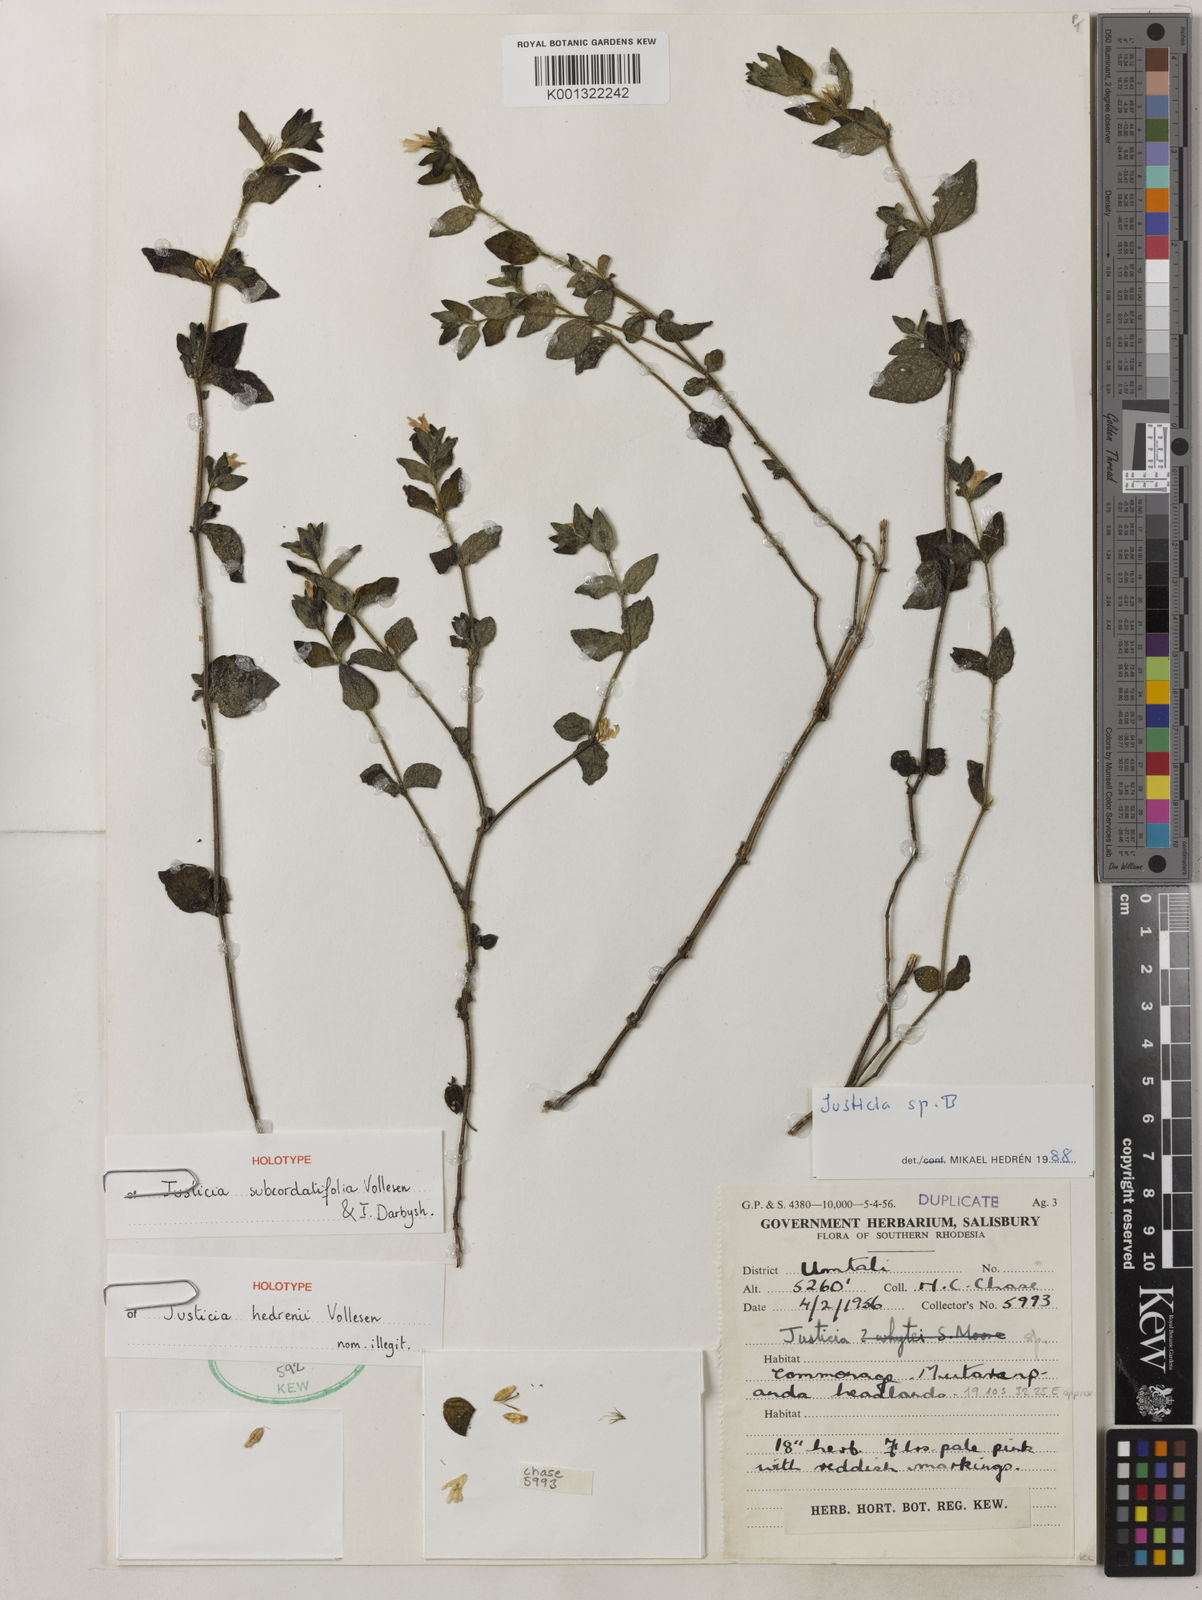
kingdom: Plantae
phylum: Tracheophyta
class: Magnoliopsida
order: Lamiales
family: Acanthaceae
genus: Justicia
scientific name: Justicia
